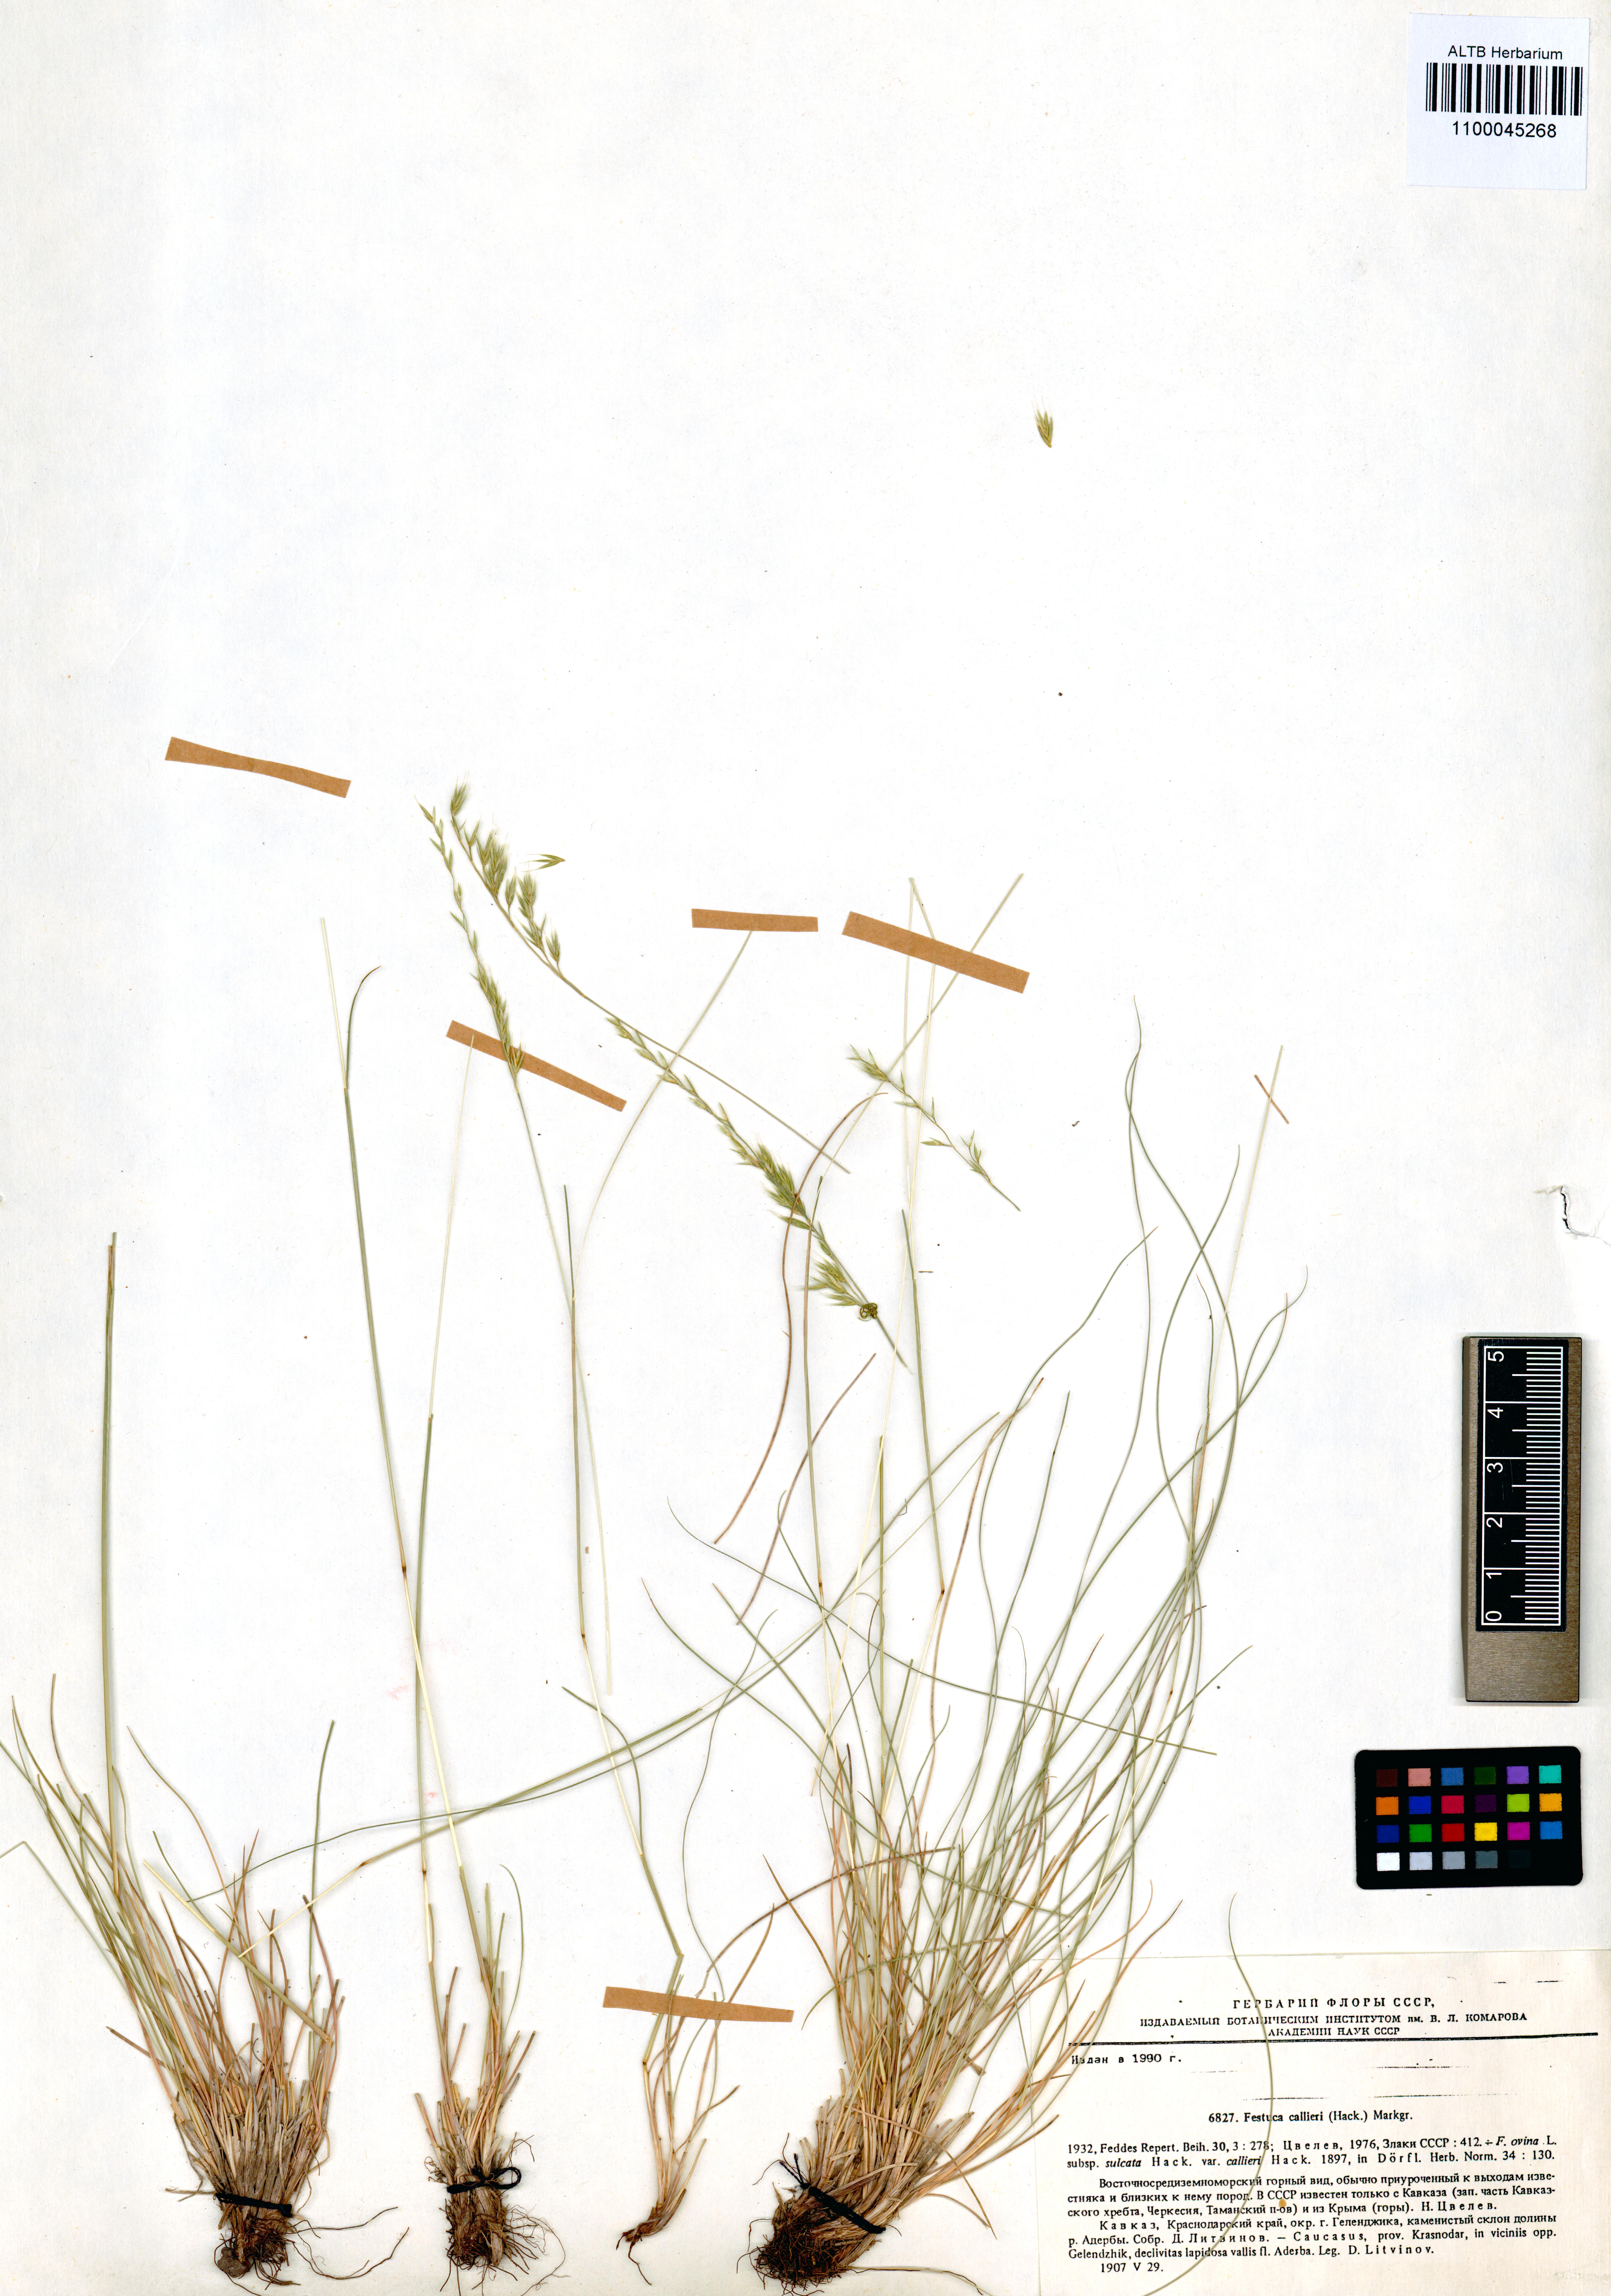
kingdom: Plantae
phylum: Tracheophyta
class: Liliopsida
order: Poales
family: Poaceae
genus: Festuca
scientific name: Festuca callieri
